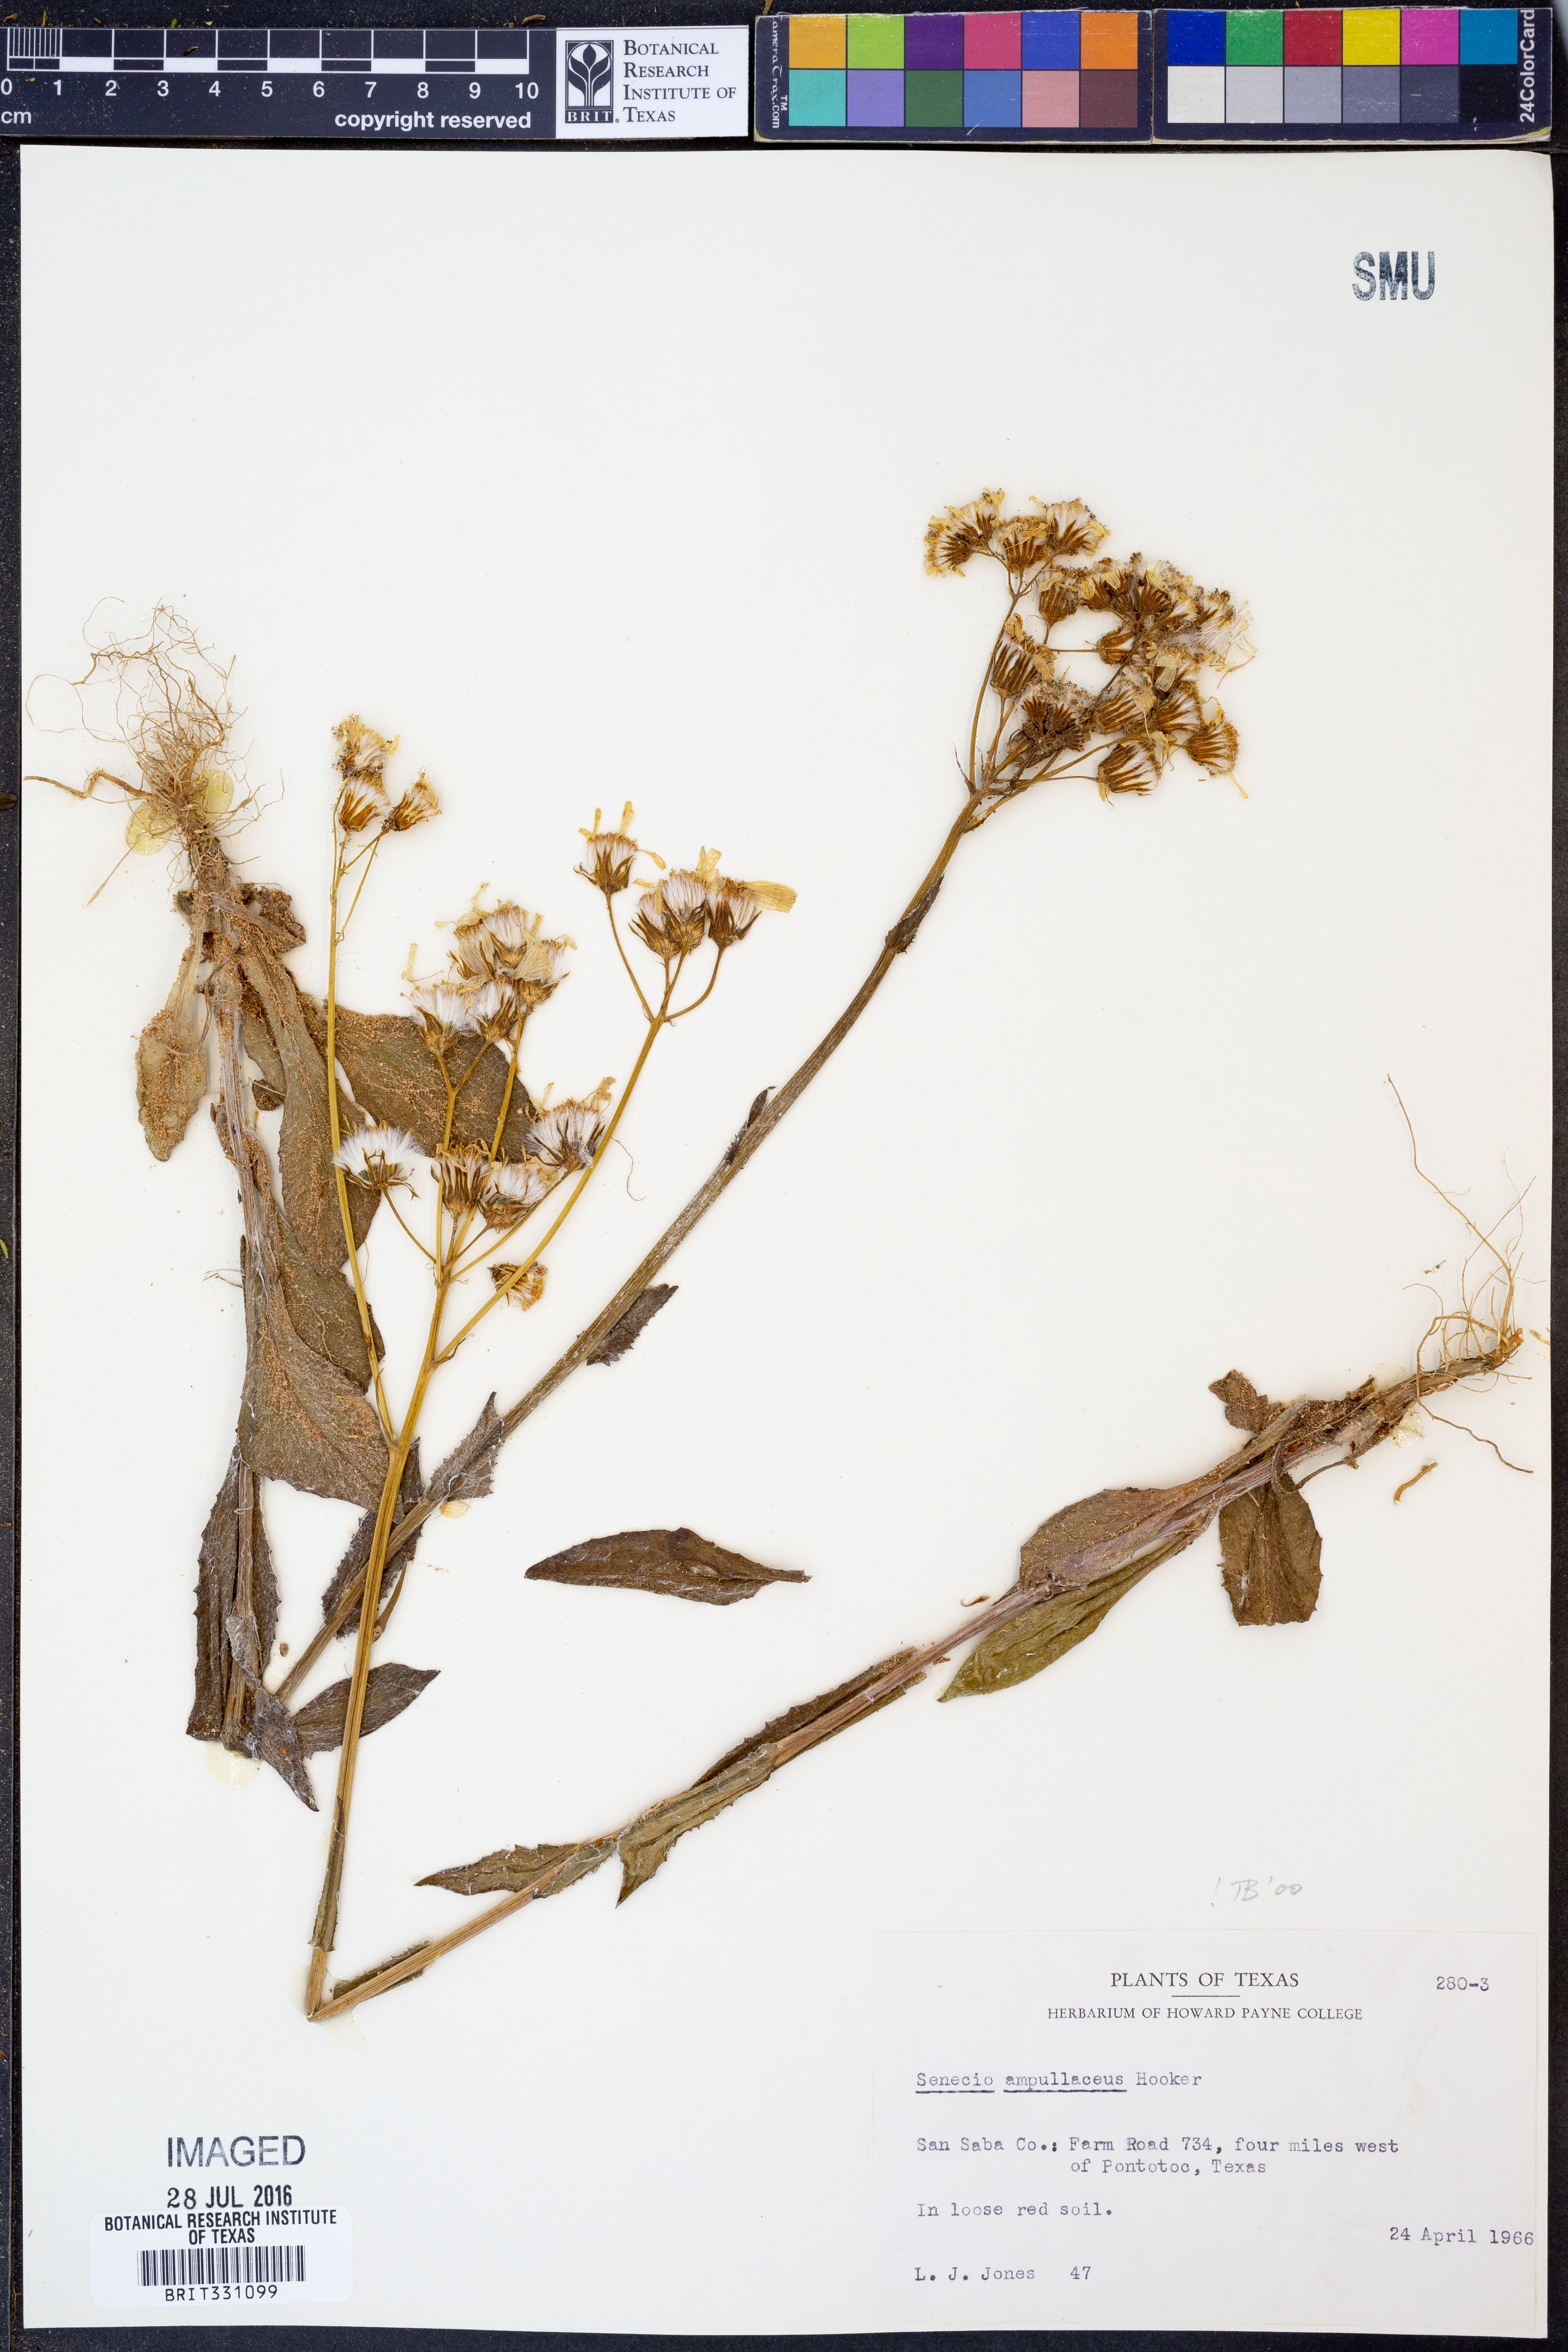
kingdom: Plantae
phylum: Tracheophyta
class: Magnoliopsida
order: Asterales
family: Asteraceae
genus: Senecio
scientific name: Senecio ampullaceus
